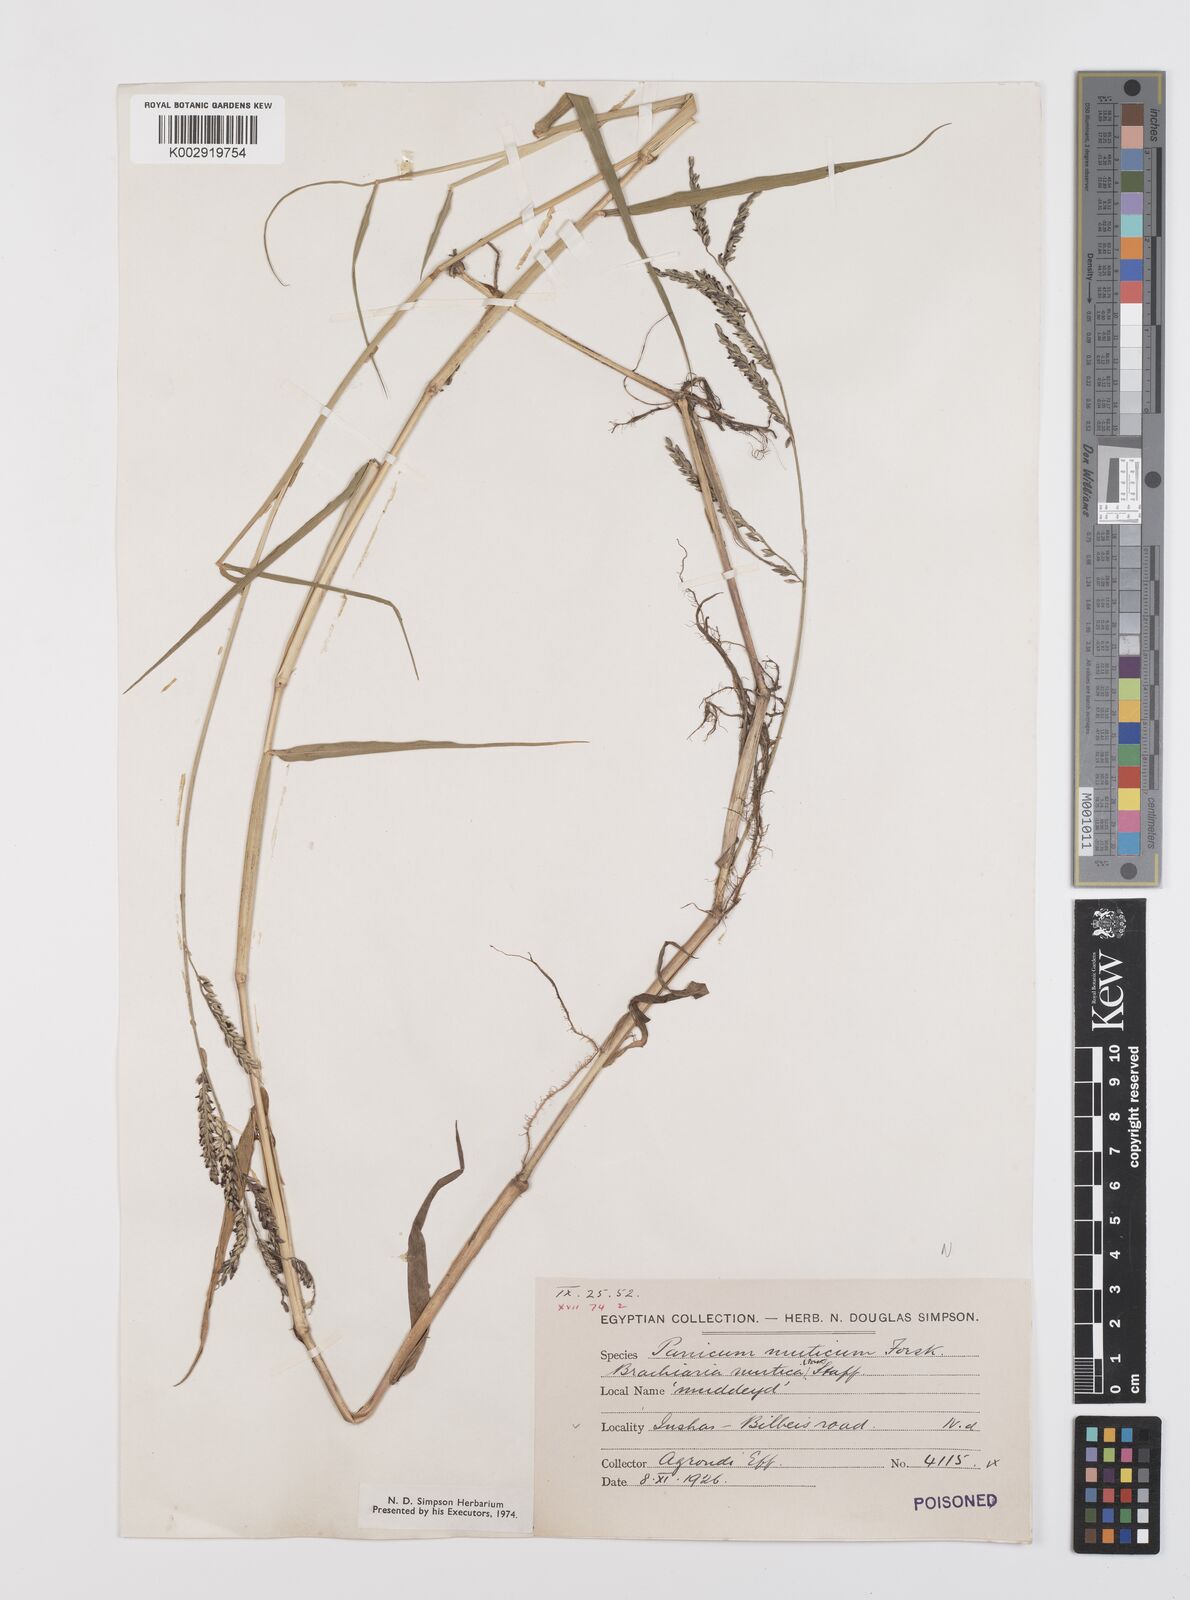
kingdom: Plantae
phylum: Tracheophyta
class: Liliopsida
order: Poales
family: Poaceae
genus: Urochloa
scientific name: Urochloa mutica
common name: Para grass
